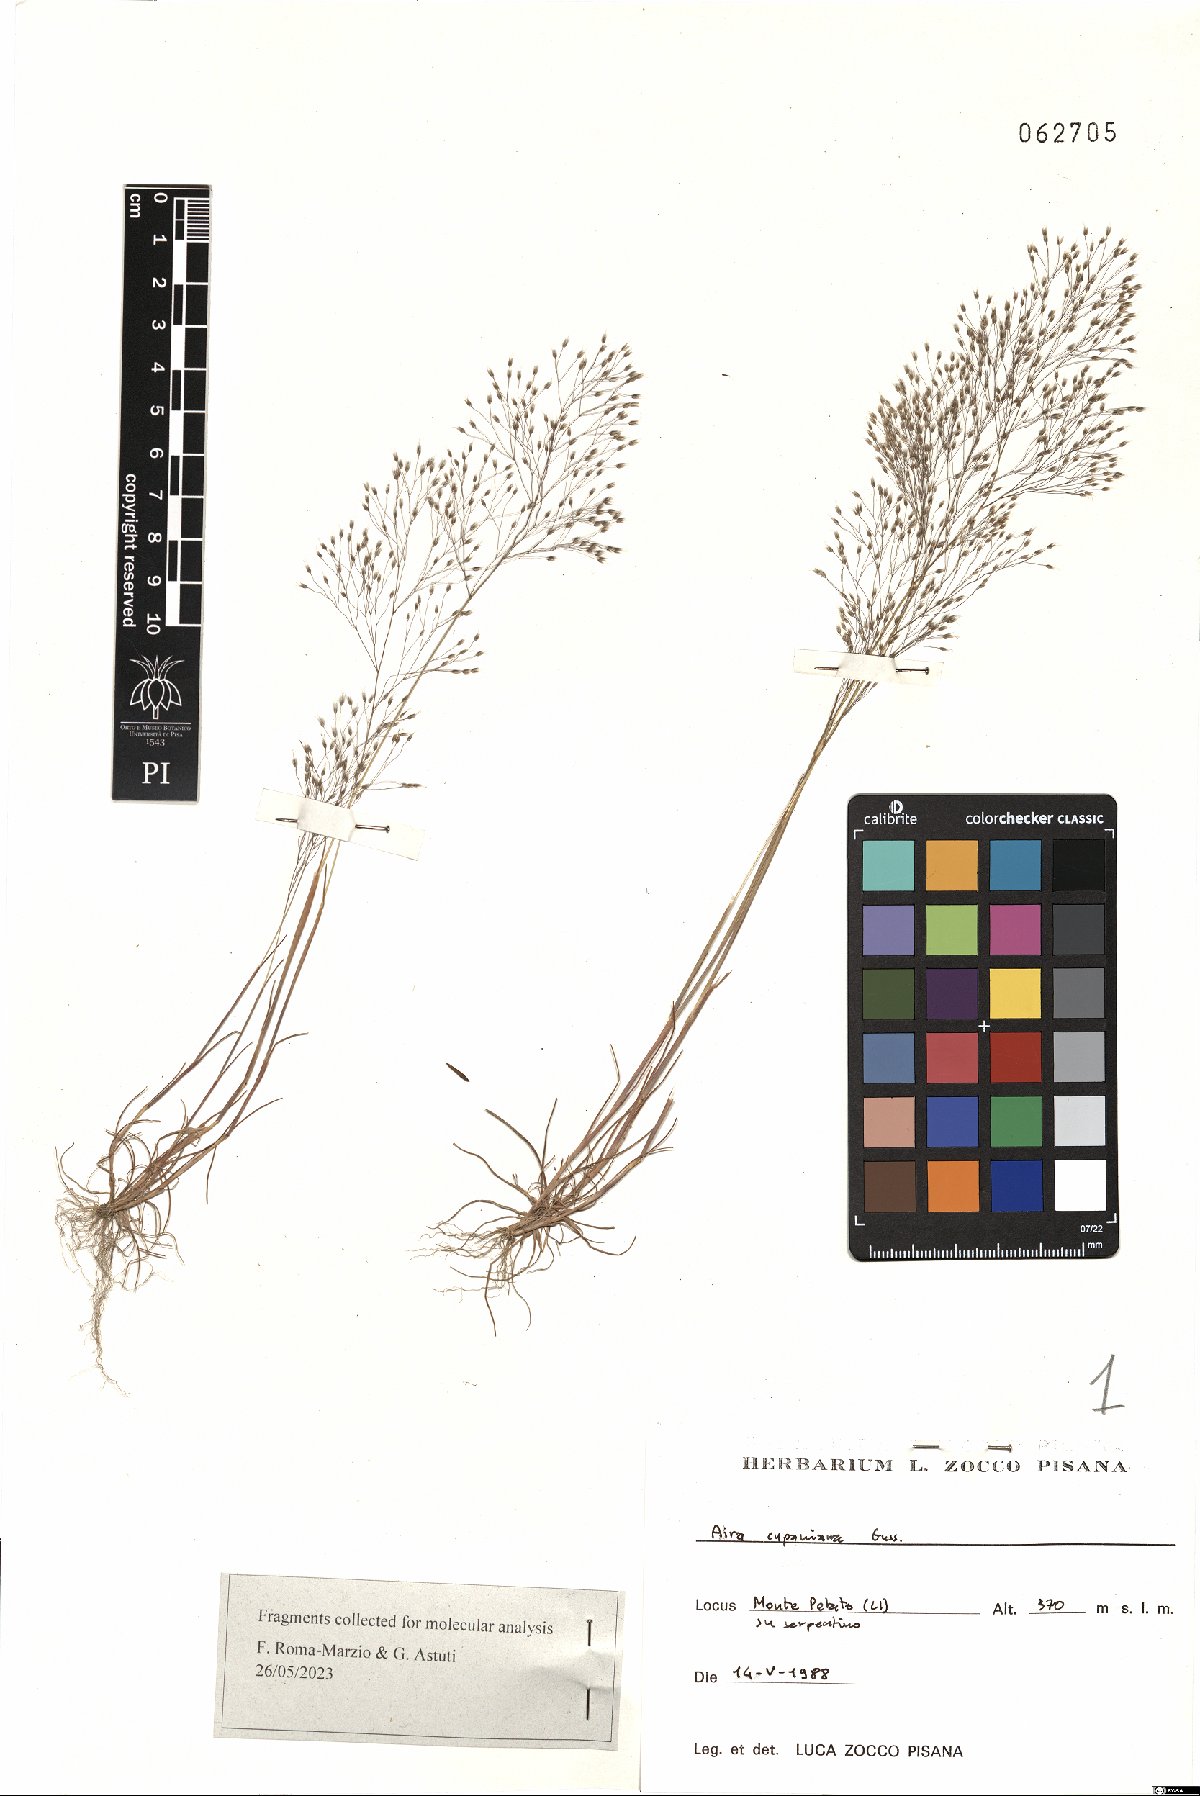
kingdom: Plantae
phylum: Tracheophyta
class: Liliopsida
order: Poales
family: Poaceae
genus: Aira
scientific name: Aira cupaniana
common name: Silver hairgrass
